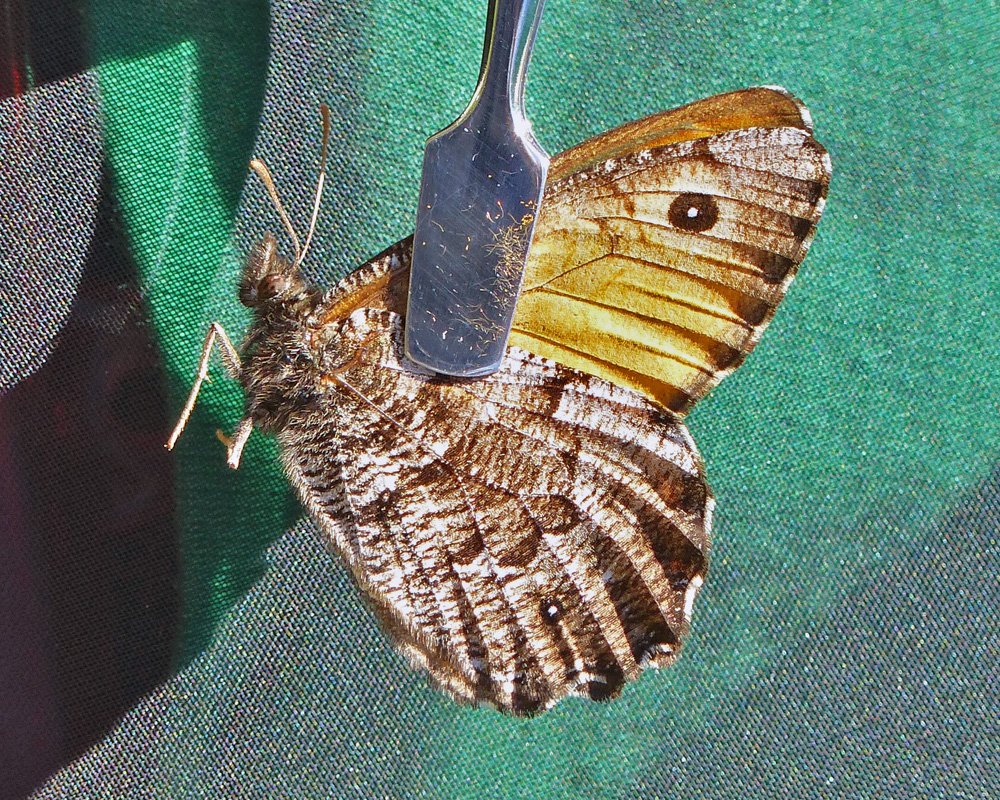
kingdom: Animalia
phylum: Arthropoda
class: Insecta
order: Lepidoptera
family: Nymphalidae
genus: Oeneis
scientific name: Oeneis nevadensis
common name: Great Arctic
